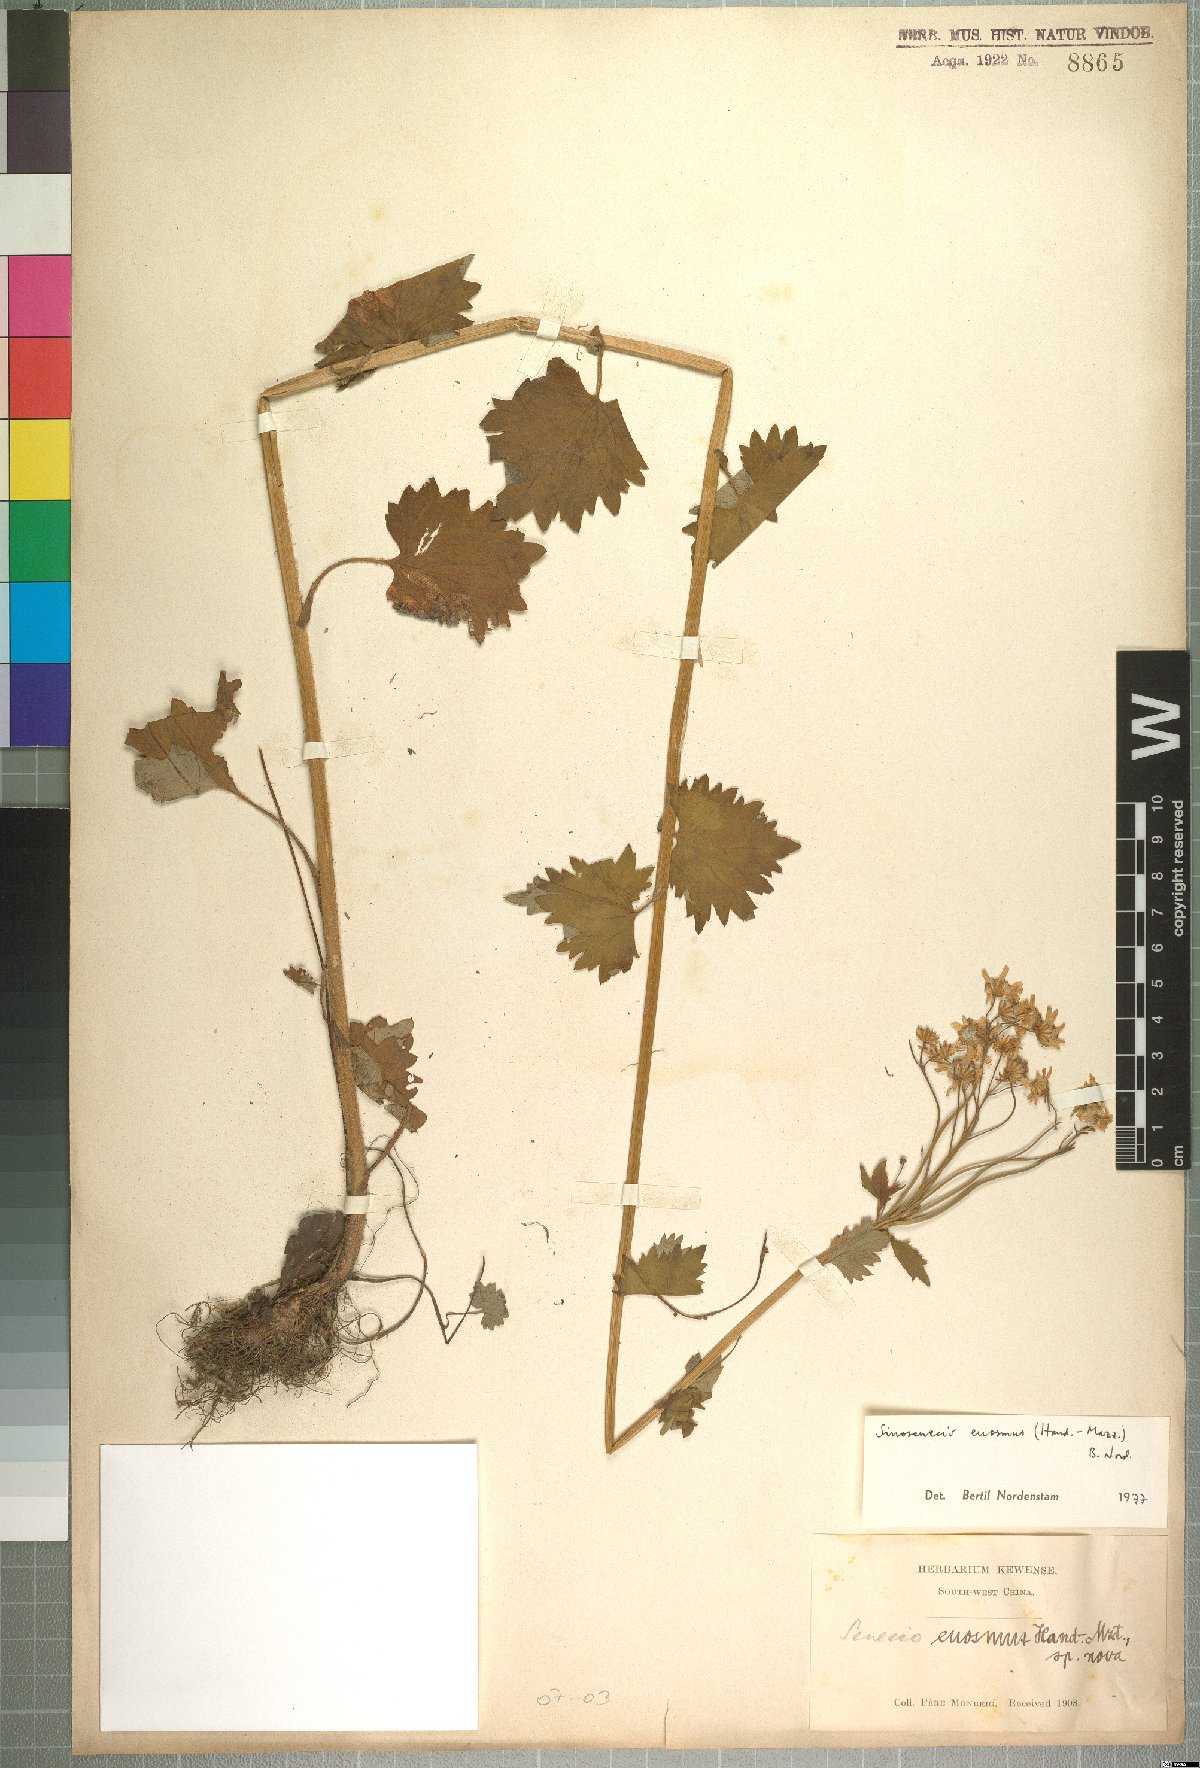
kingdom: Plantae
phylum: Tracheophyta
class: Magnoliopsida
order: Asterales
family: Asteraceae
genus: Sinosenecio
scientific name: Sinosenecio euosmus
